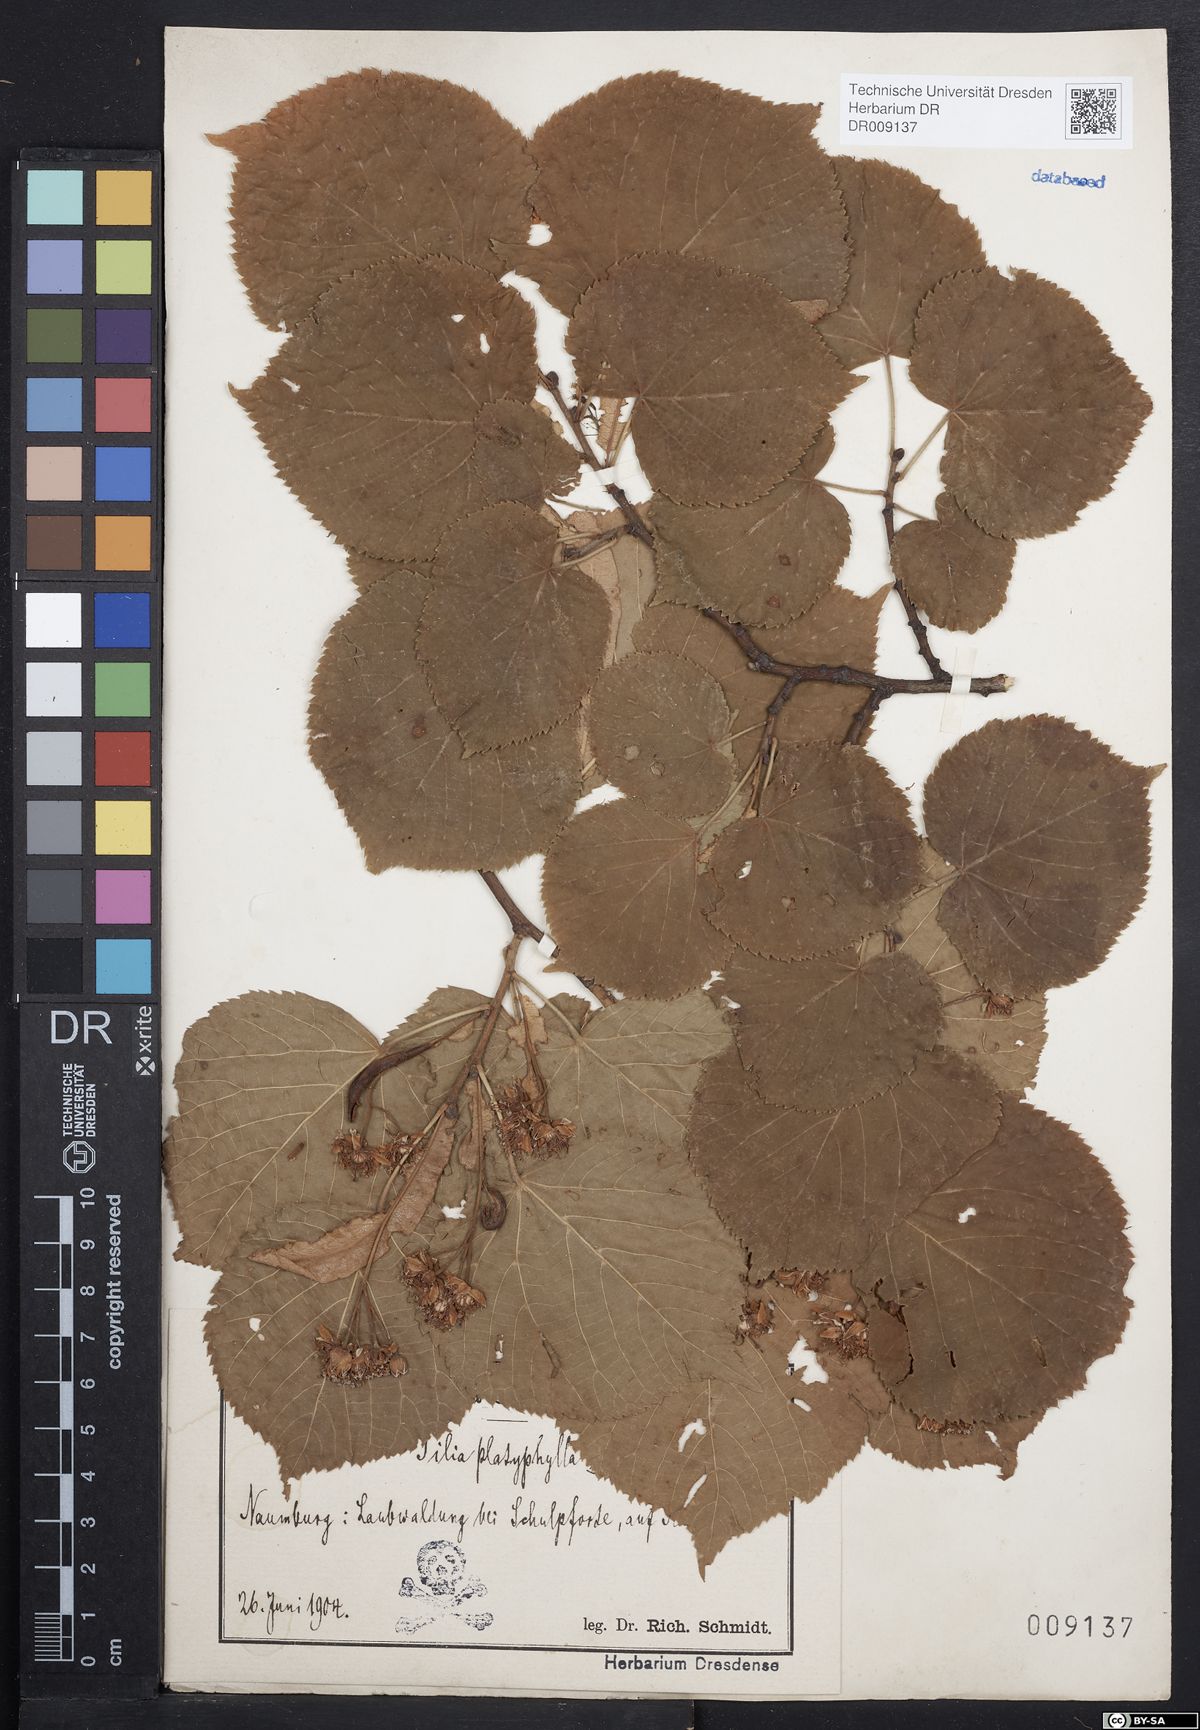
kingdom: Plantae
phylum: Tracheophyta
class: Magnoliopsida
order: Malvales
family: Malvaceae
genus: Tilia
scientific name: Tilia platyphyllos
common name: Large-leaved lime
